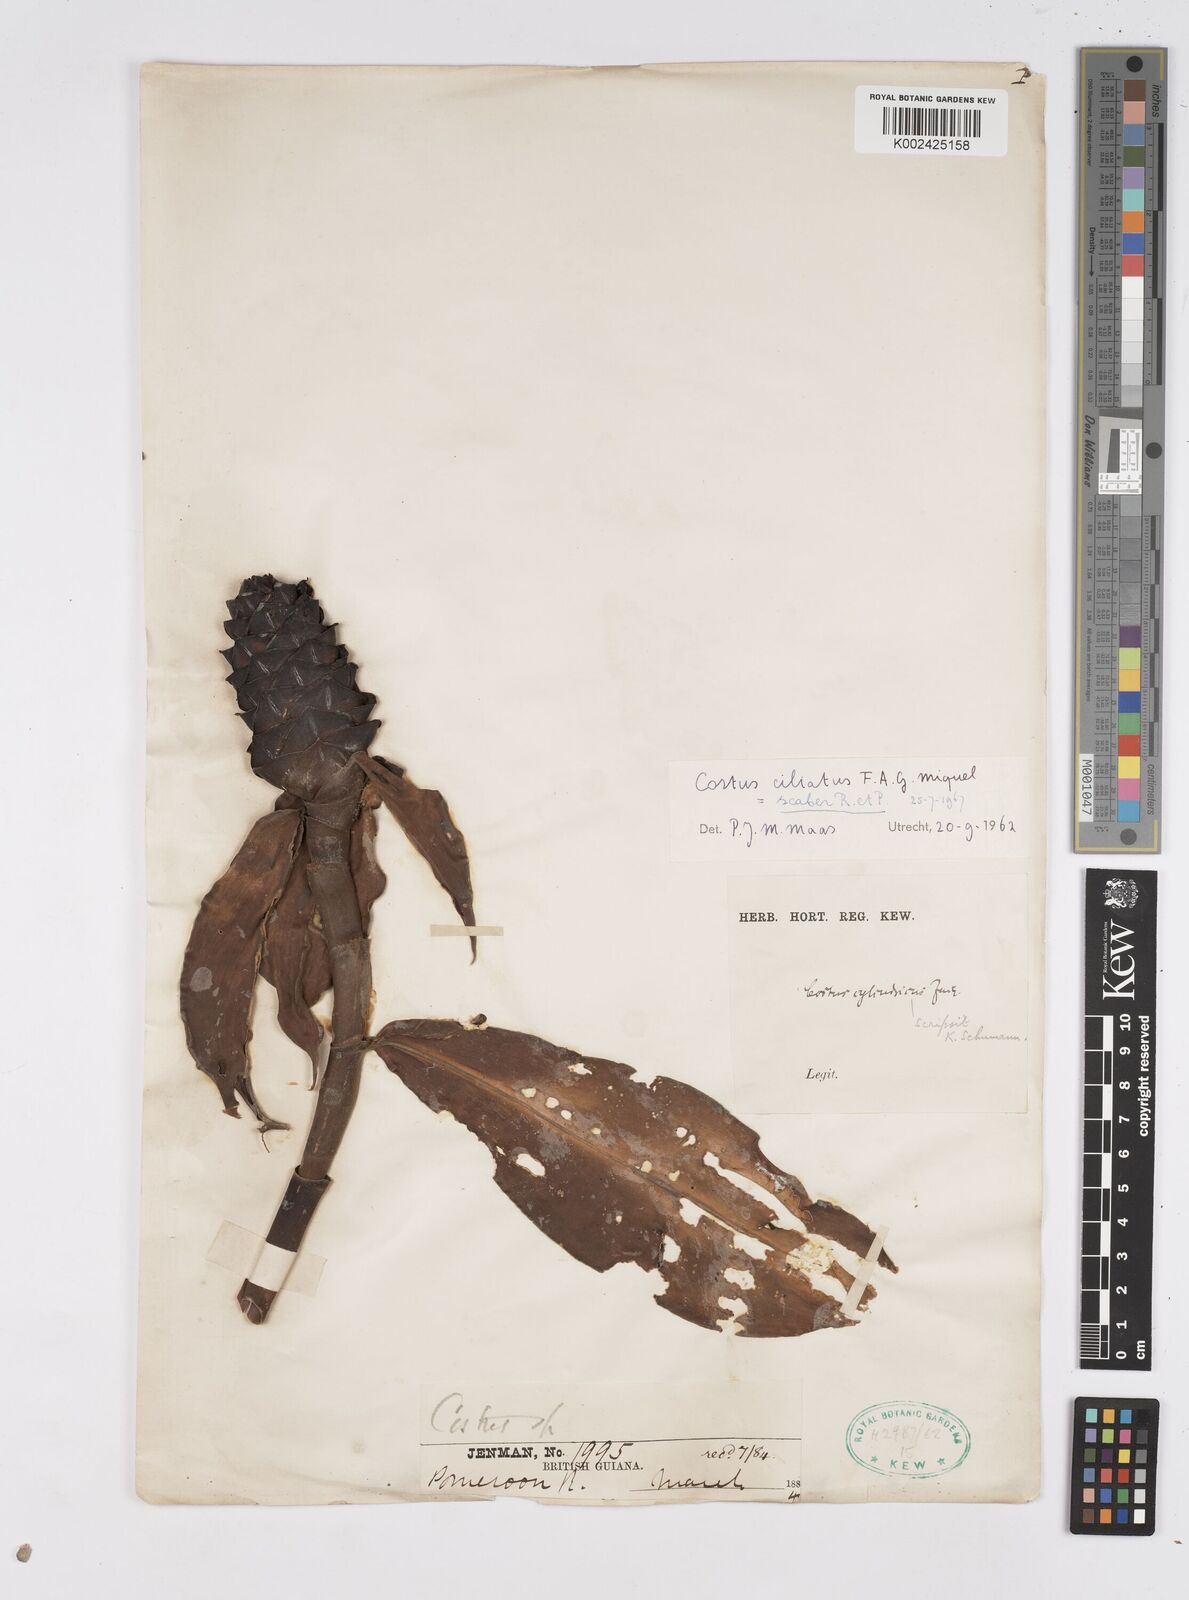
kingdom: Plantae
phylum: Tracheophyta
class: Liliopsida
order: Zingiberales
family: Costaceae
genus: Costus
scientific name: Costus scaber
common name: Spiral head ginger
